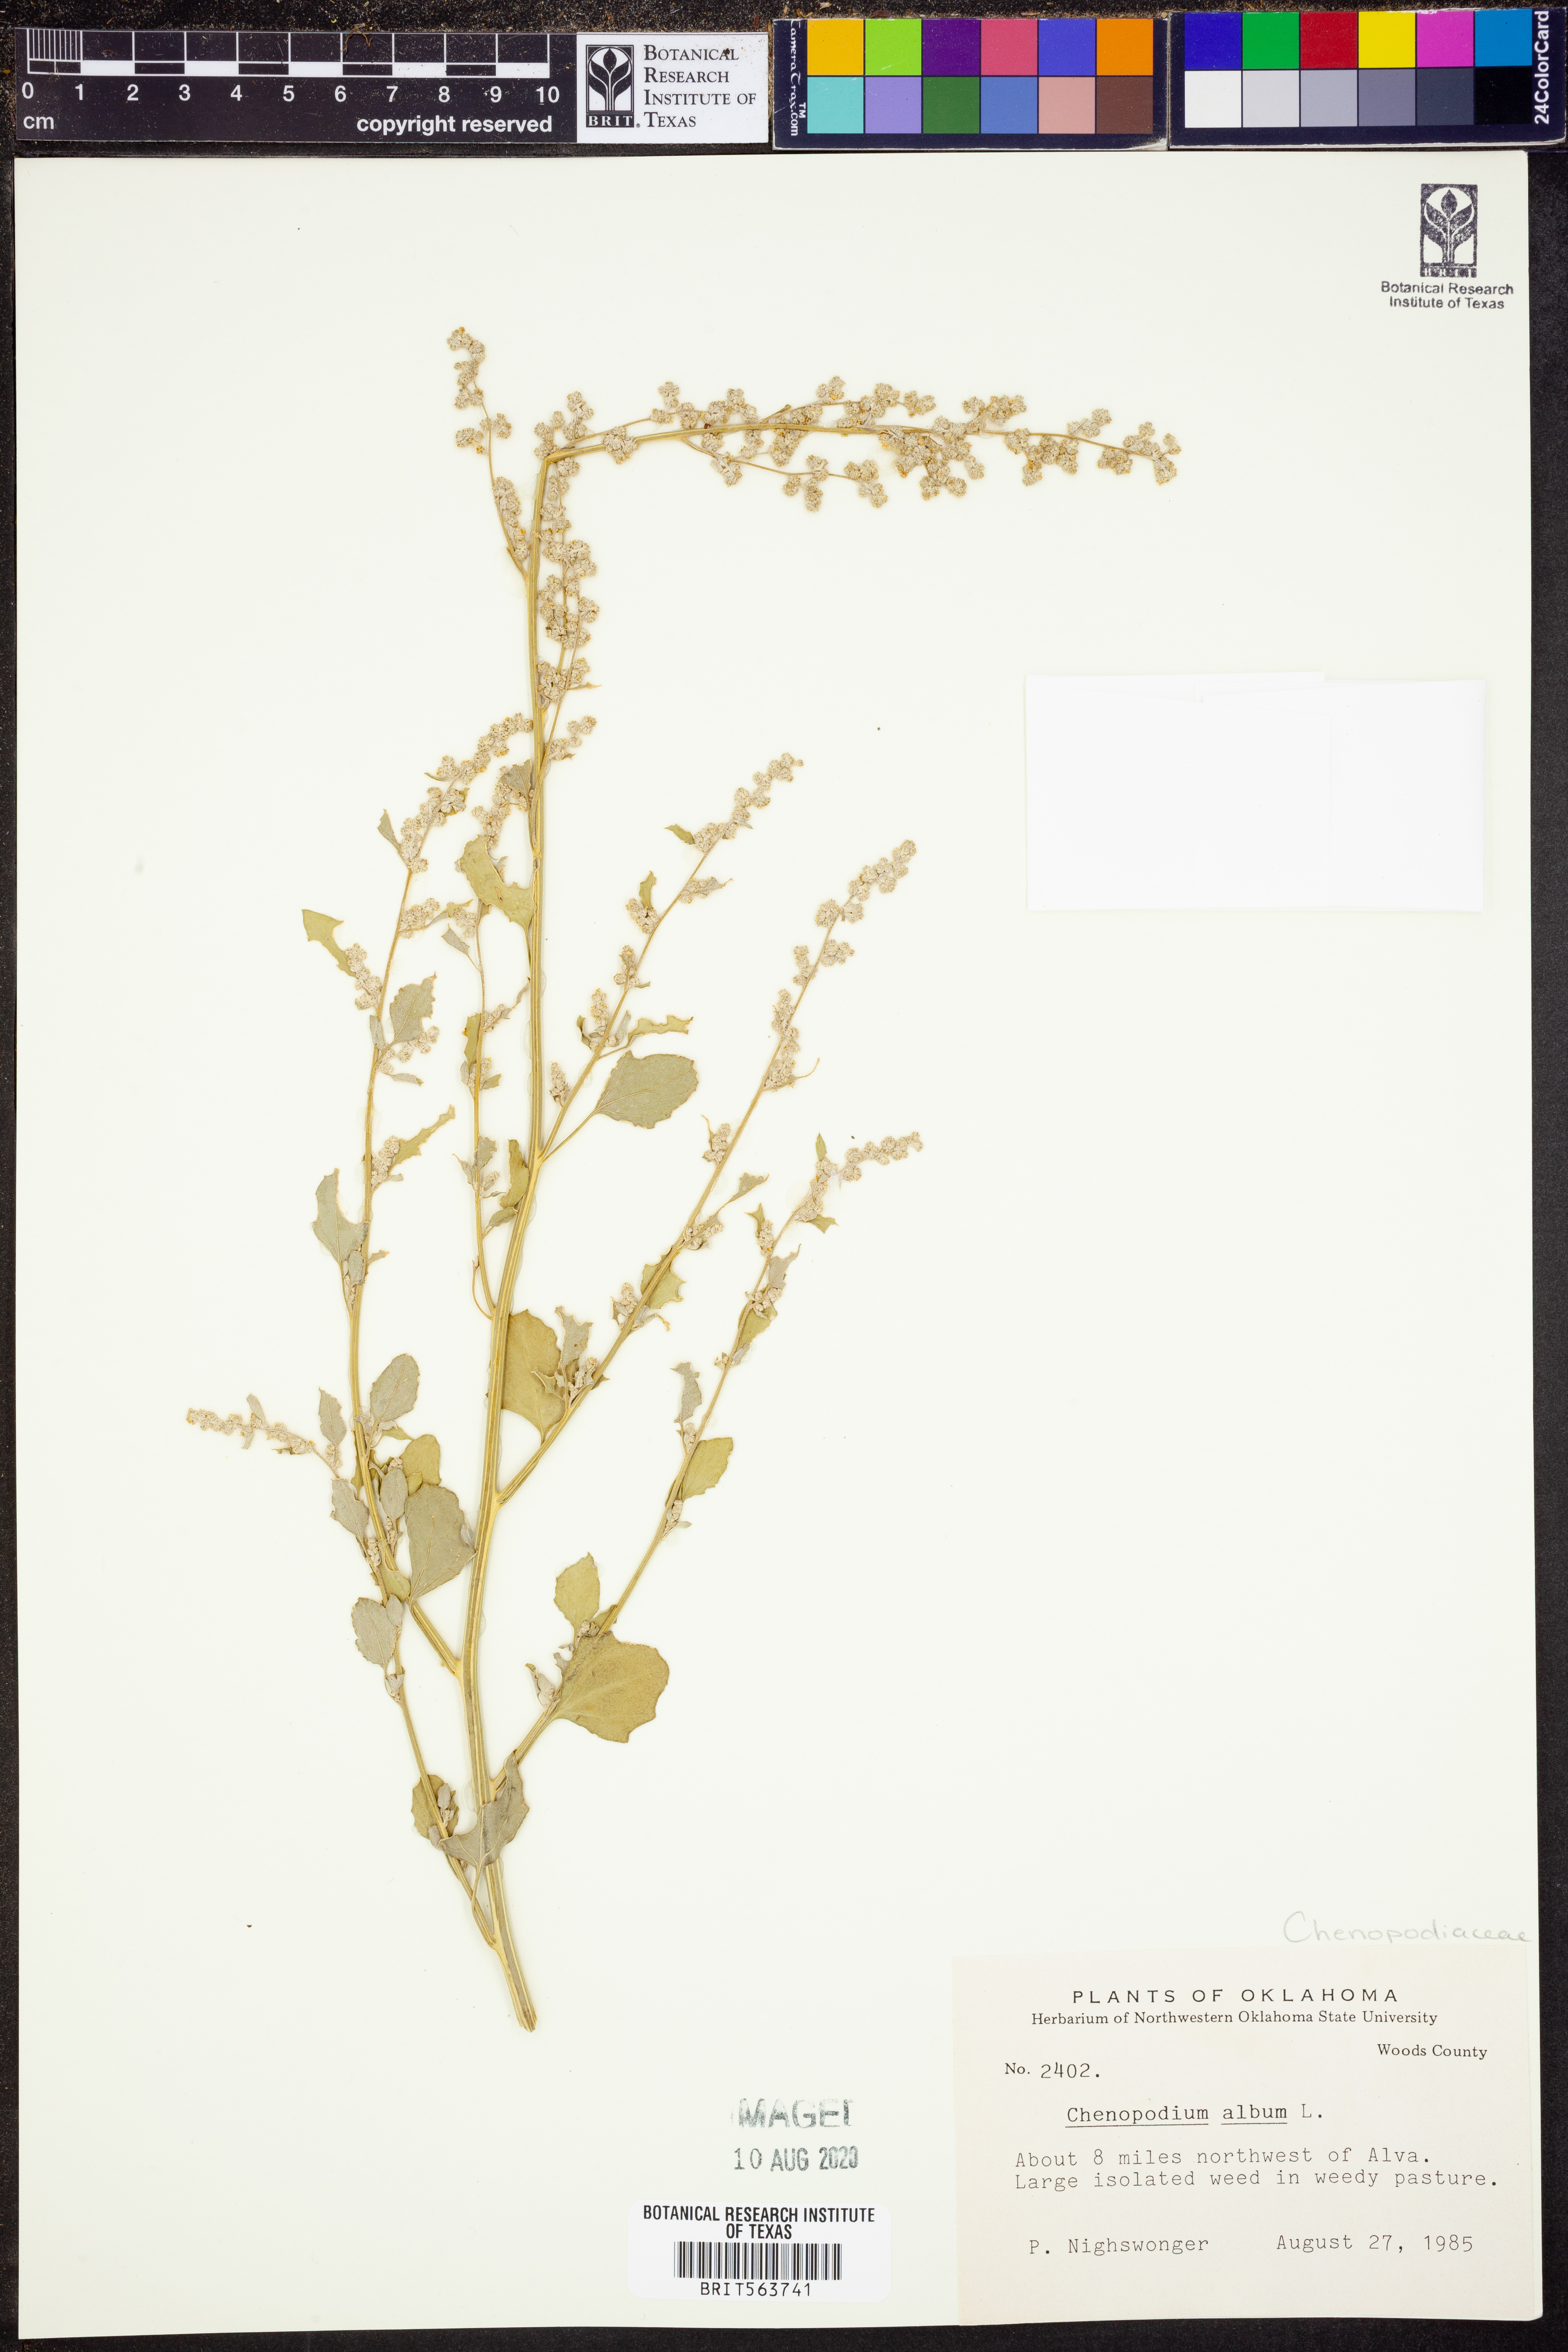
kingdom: Plantae
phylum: Tracheophyta
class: Magnoliopsida
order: Caryophyllales
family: Amaranthaceae
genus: Chenopodium
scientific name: Chenopodium album
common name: Fat-hen
